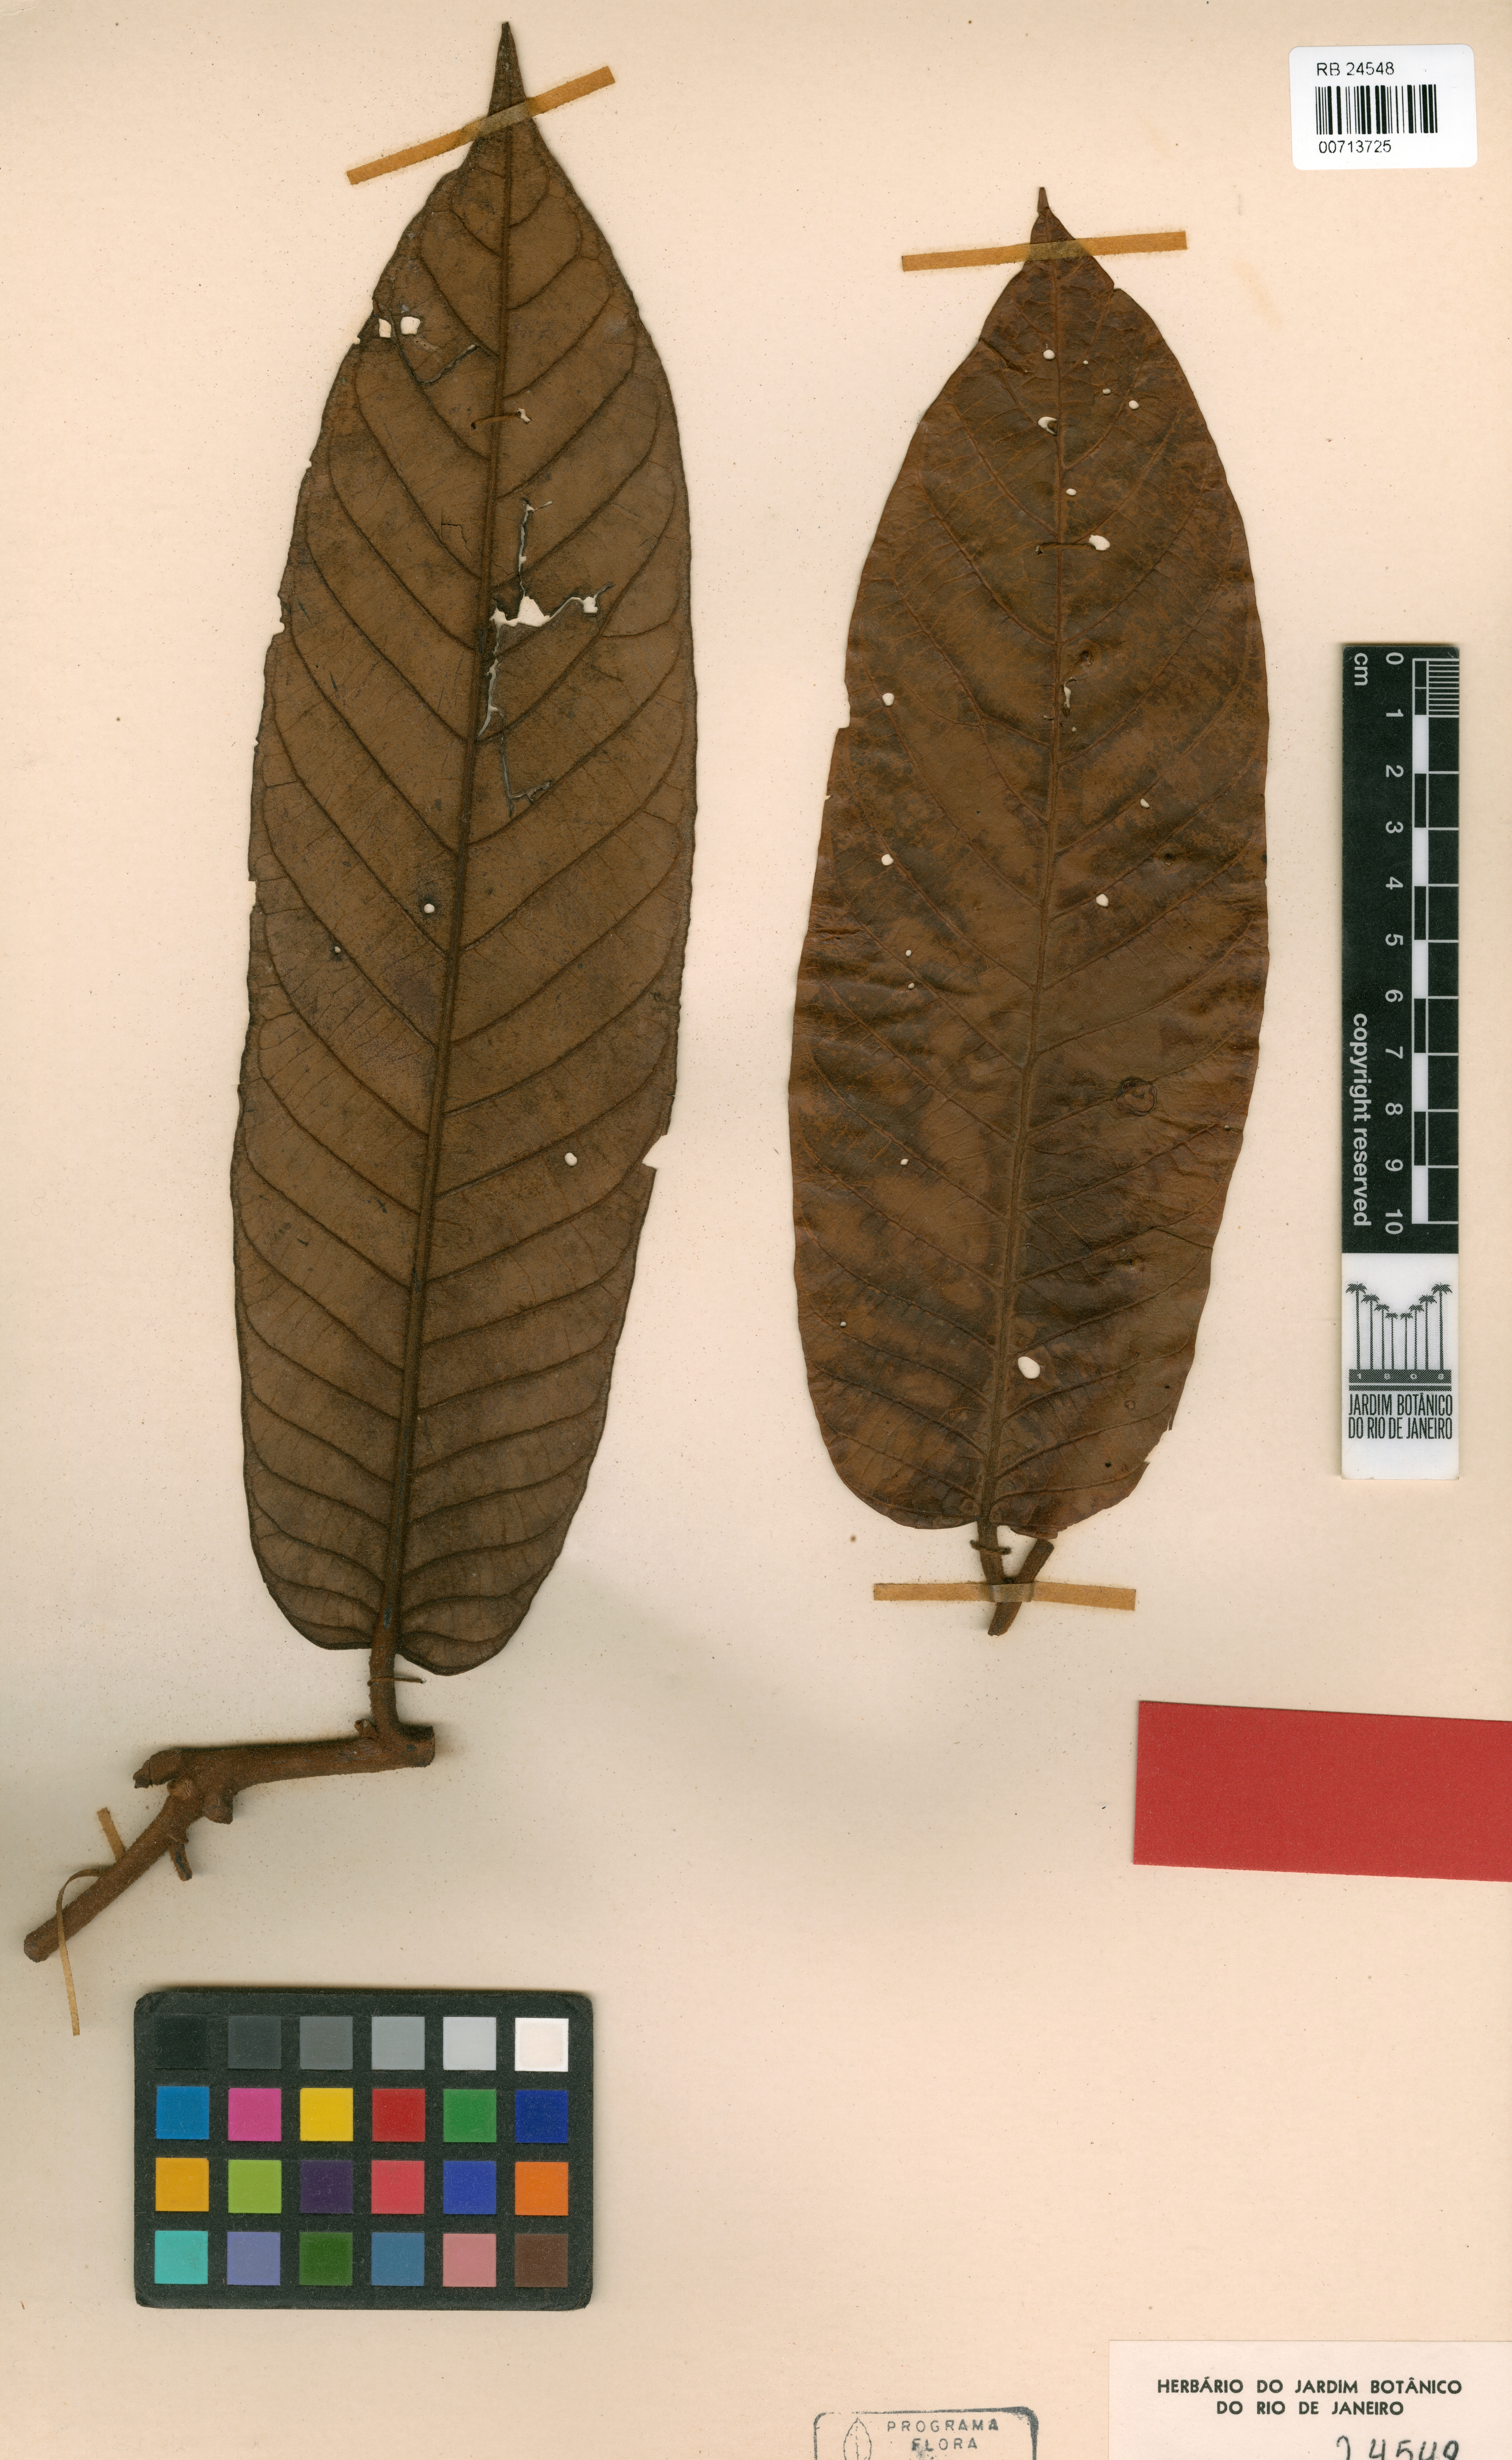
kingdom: Plantae
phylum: Tracheophyta
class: Magnoliopsida
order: Magnoliales
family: Myristicaceae
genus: Virola
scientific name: Virola divergens
